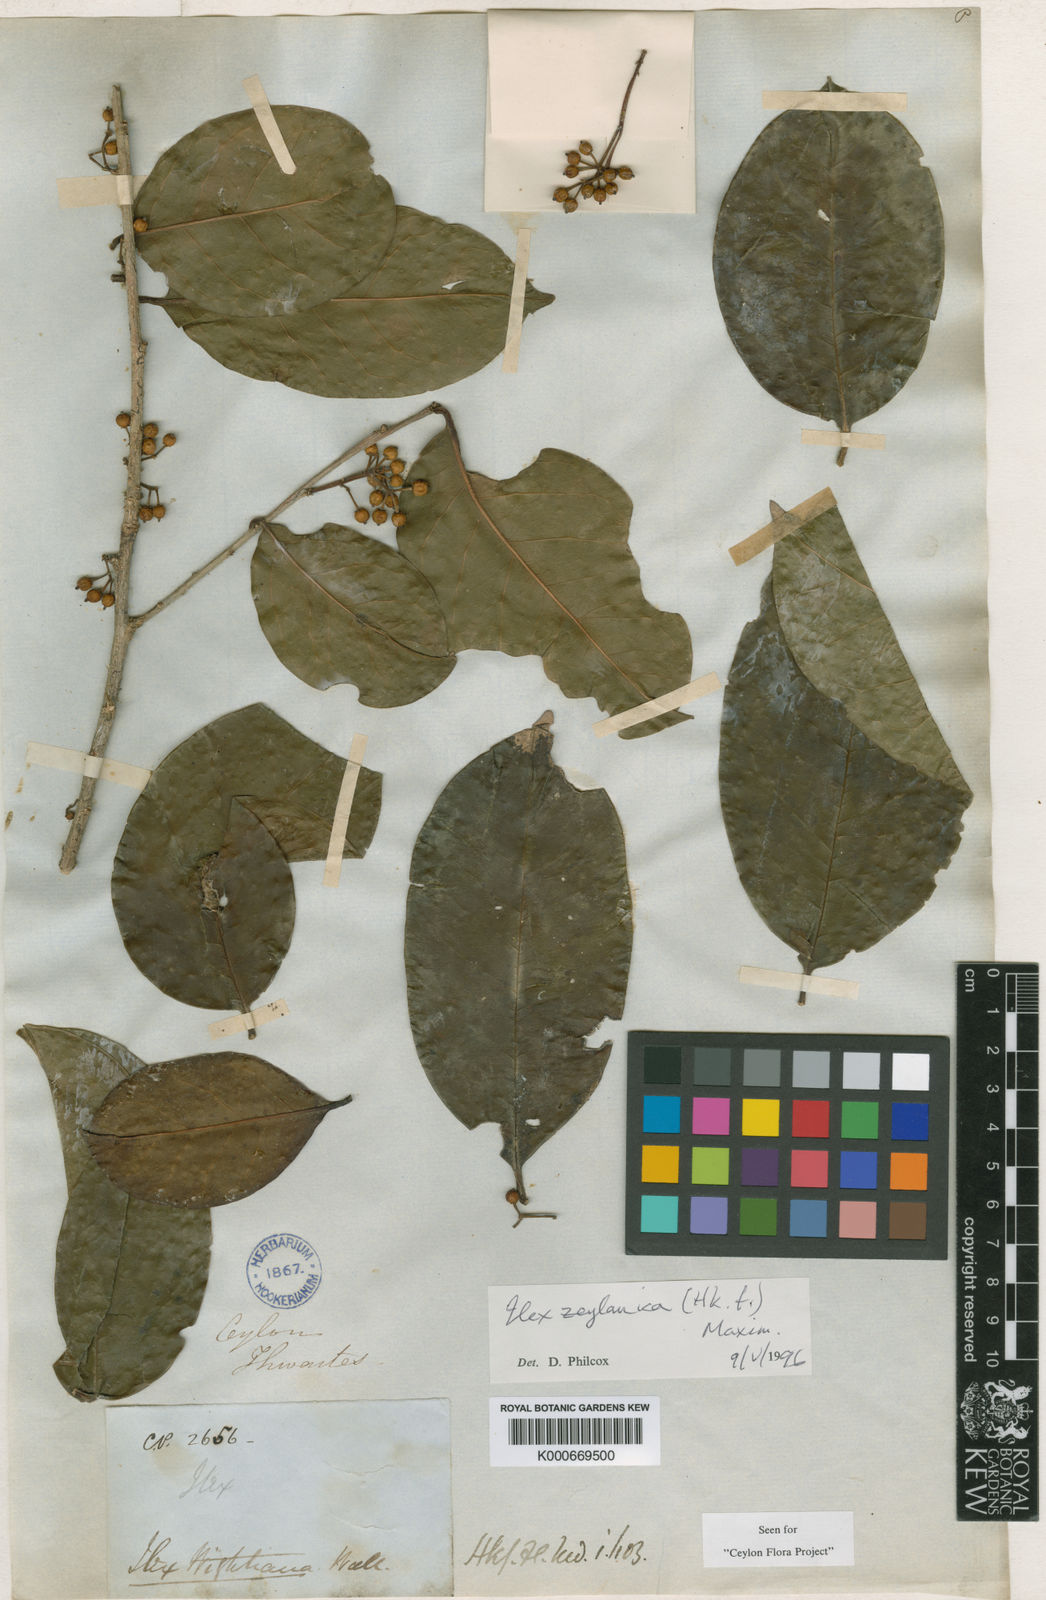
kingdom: Plantae
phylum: Tracheophyta
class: Magnoliopsida
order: Aquifoliales
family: Aquifoliaceae
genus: Ilex
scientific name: Ilex zeylanica
